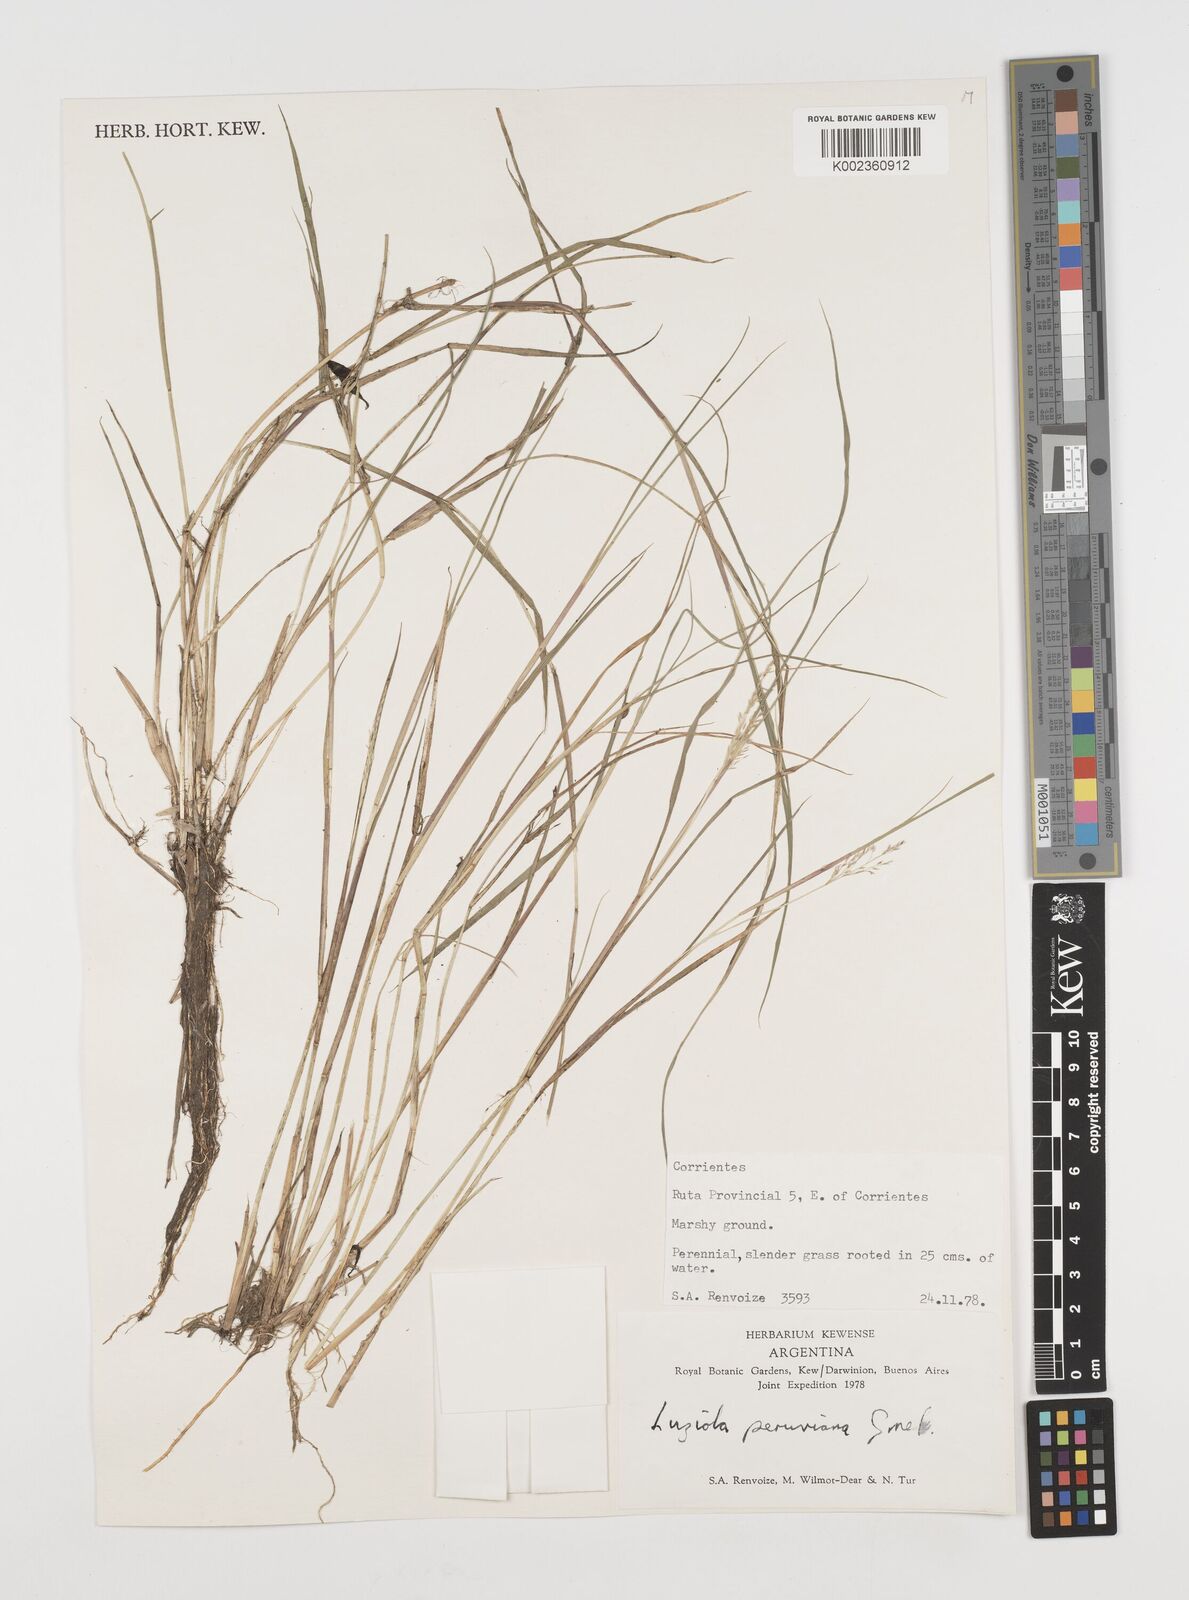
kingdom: Plantae
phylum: Tracheophyta
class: Liliopsida
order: Poales
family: Poaceae
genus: Luziola
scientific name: Luziola peruviana
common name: Peruvian watergrass
